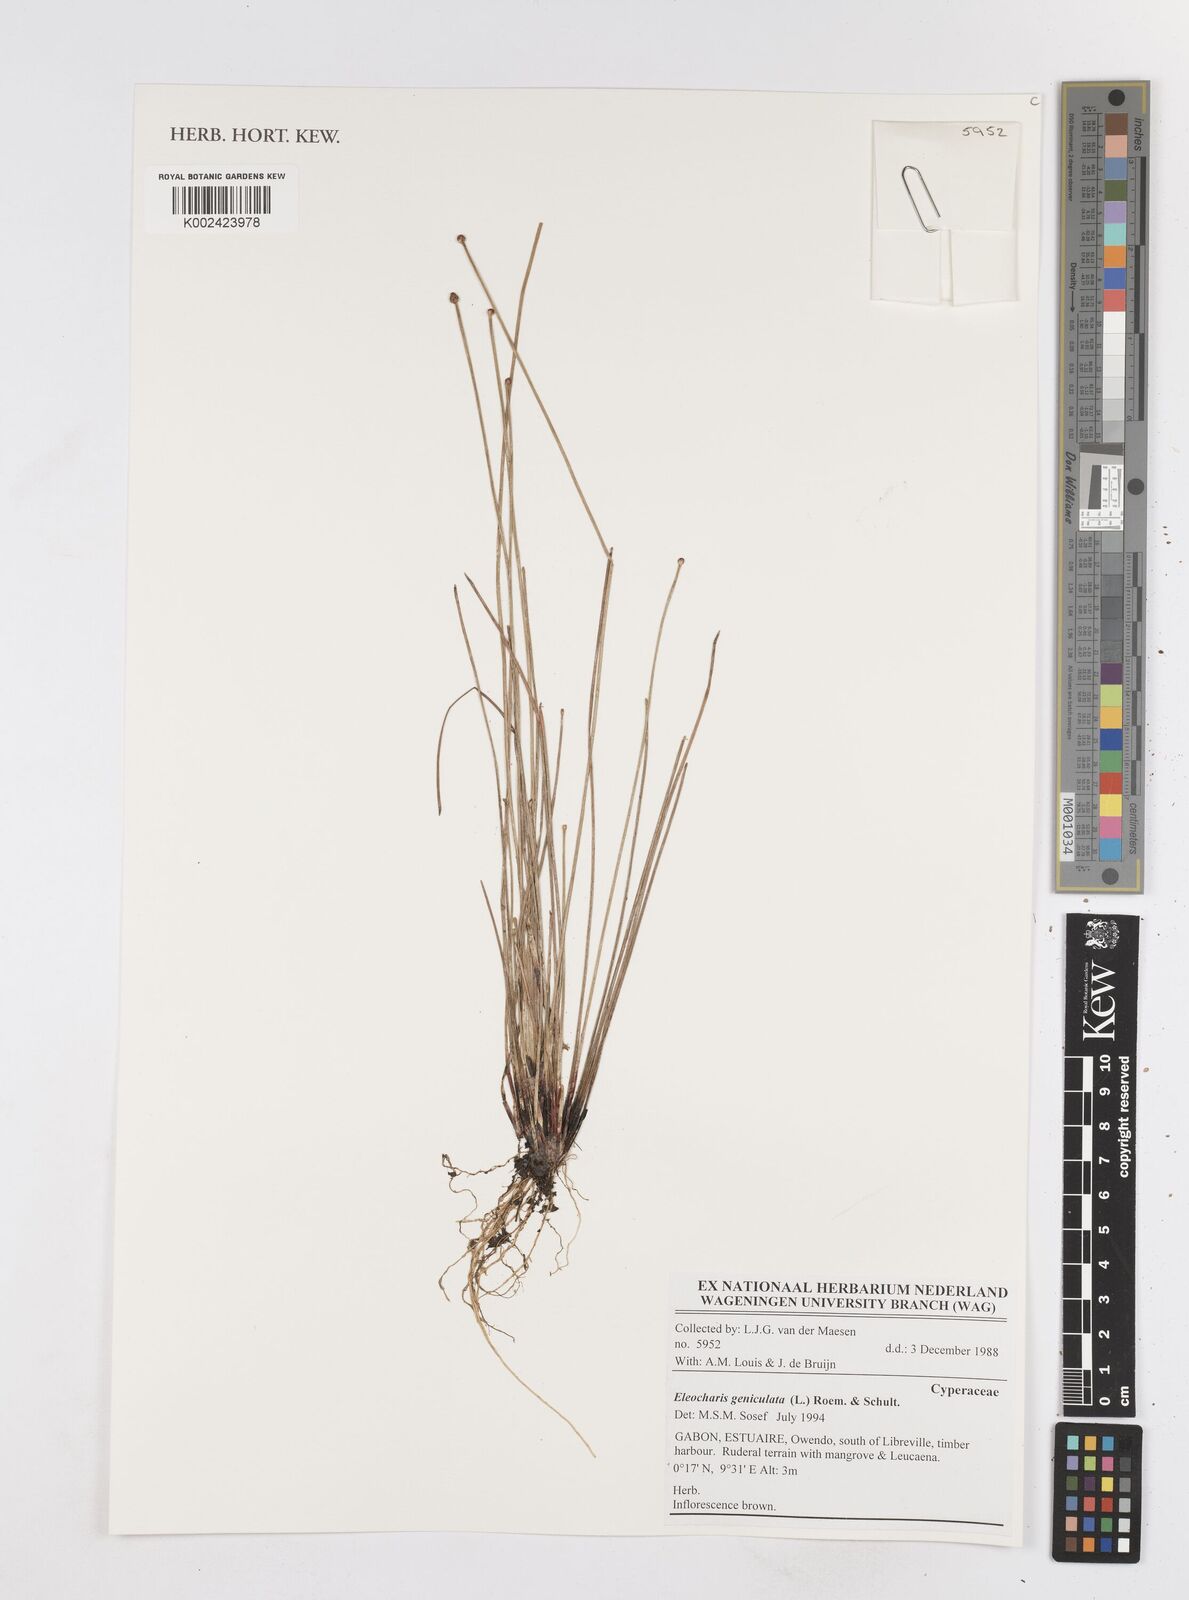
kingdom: Plantae
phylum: Tracheophyta
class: Liliopsida
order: Poales
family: Cyperaceae
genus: Eleocharis
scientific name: Eleocharis geniculata
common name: Canada spikesedge
